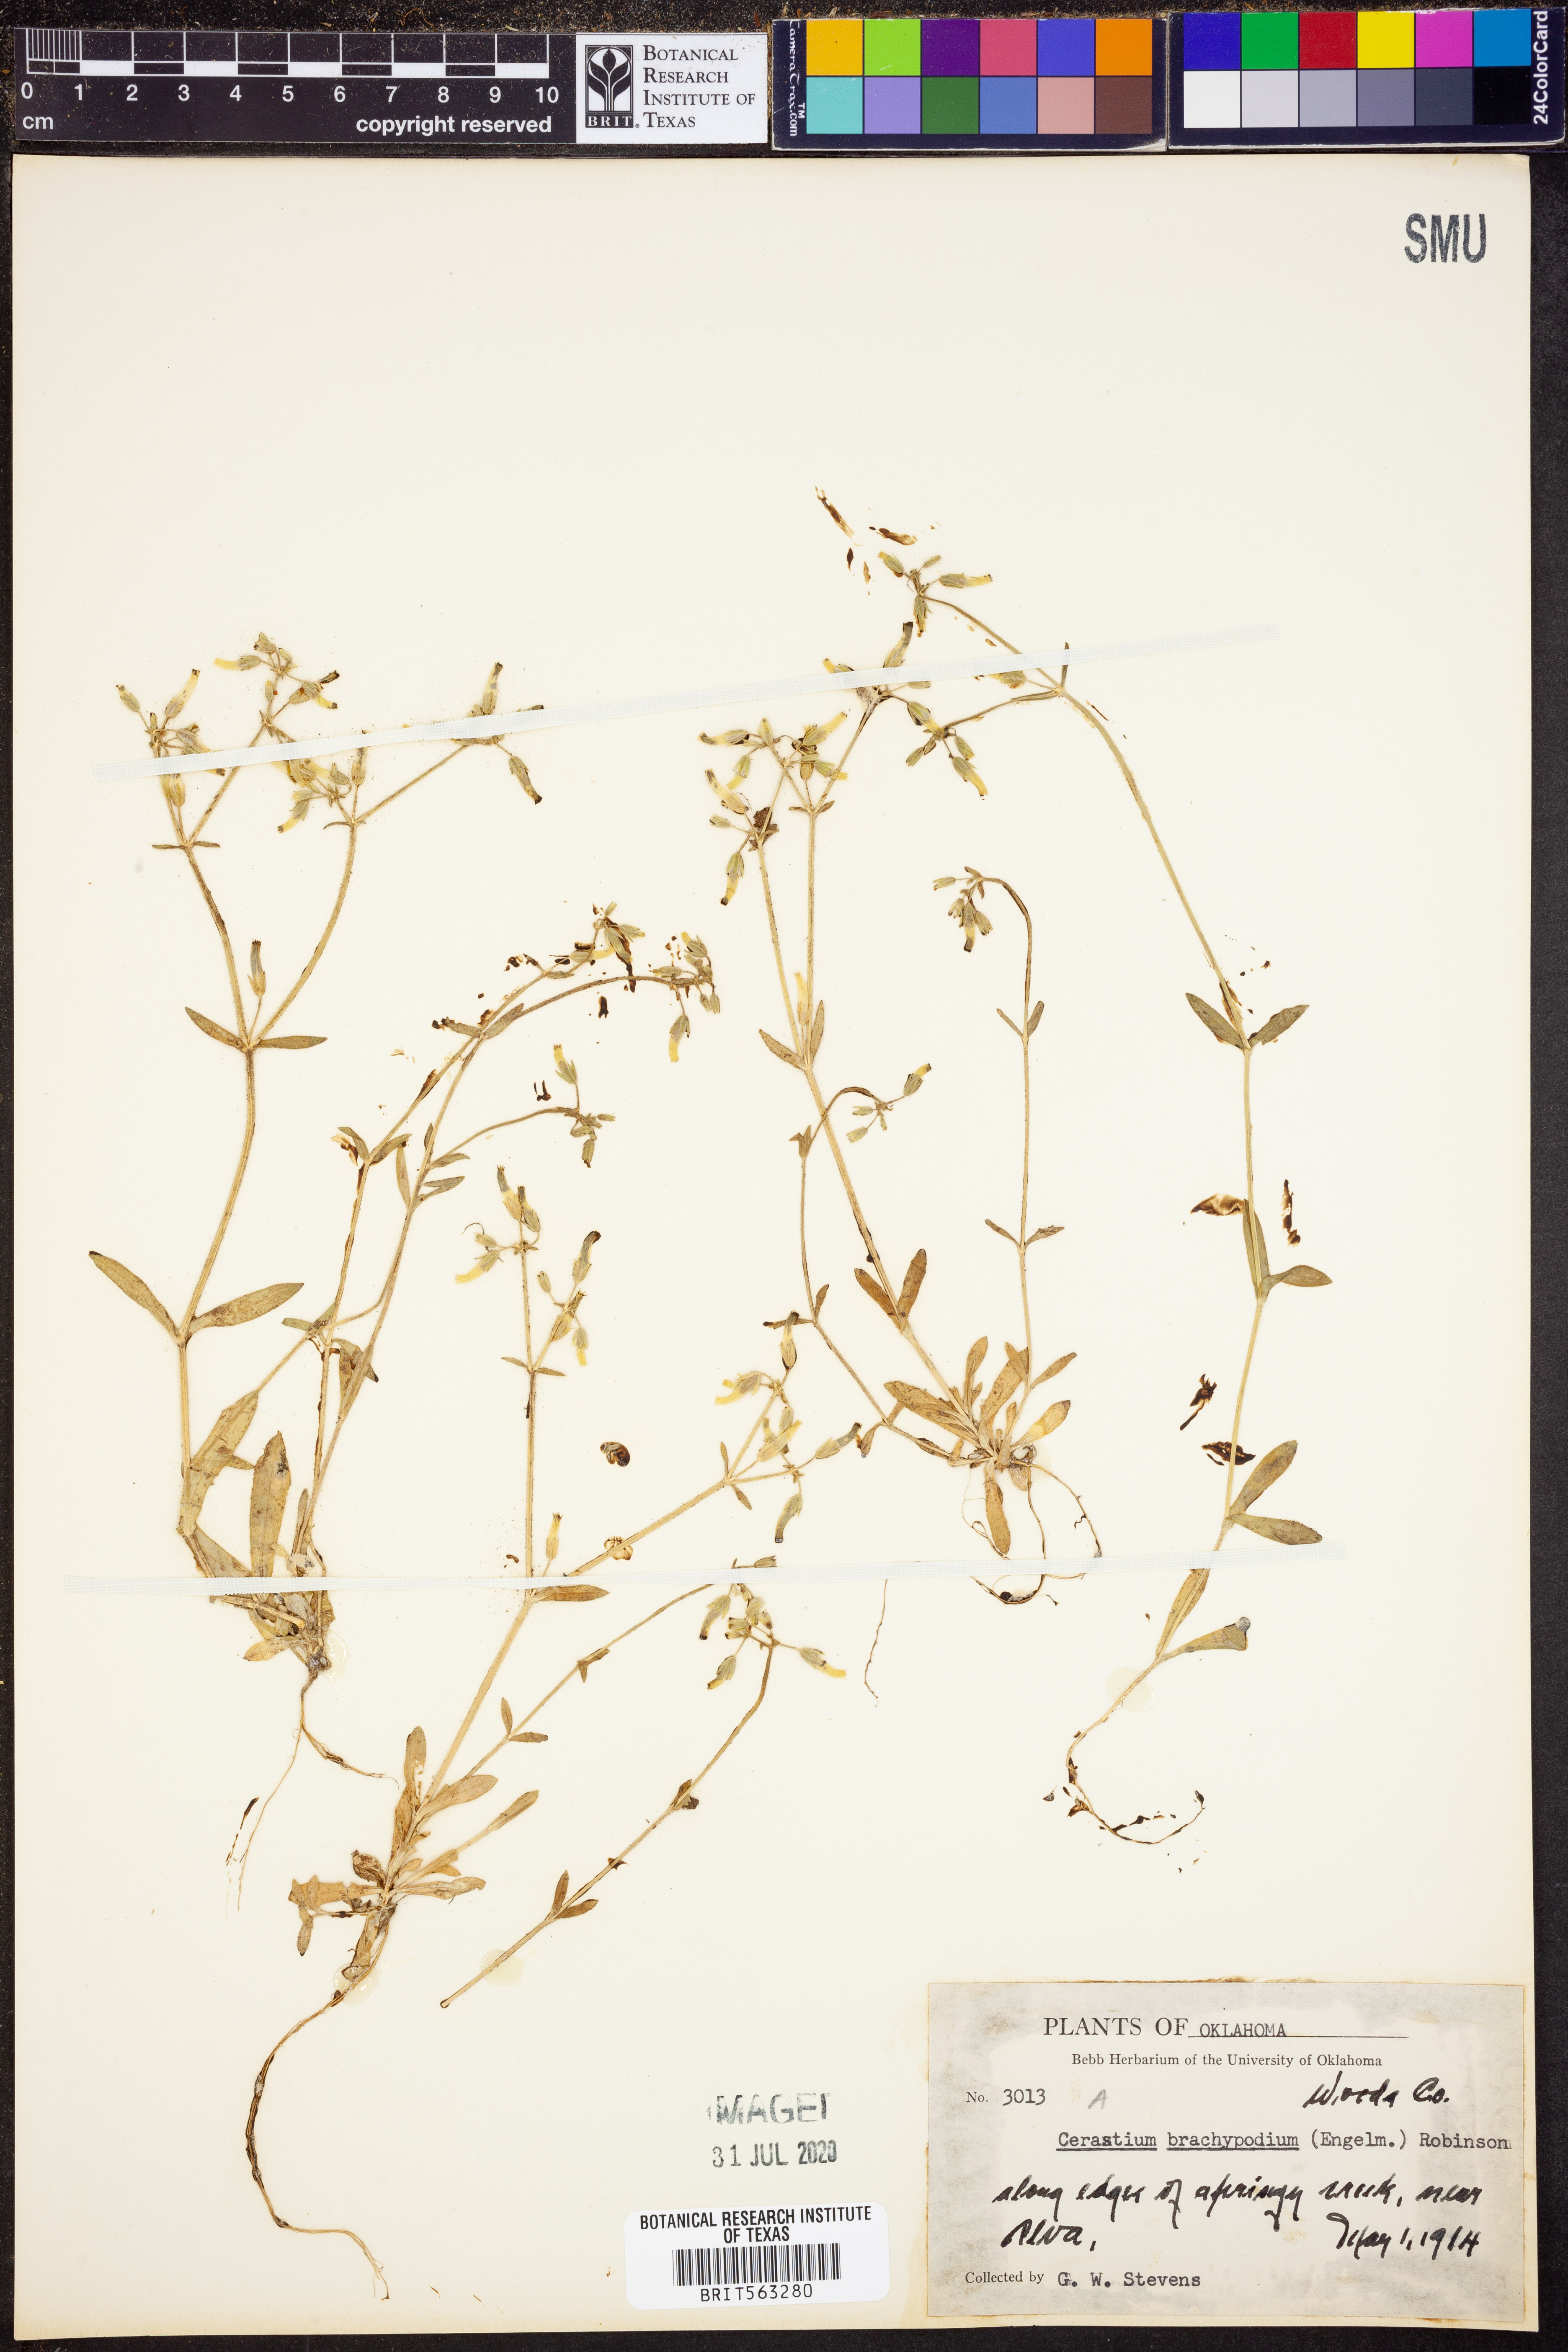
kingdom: Plantae
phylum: Tracheophyta
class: Magnoliopsida
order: Caryophyllales
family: Caryophyllaceae
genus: Cerastium
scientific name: Cerastium brachypodum
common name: Short-pedicelled nodding chickweed
